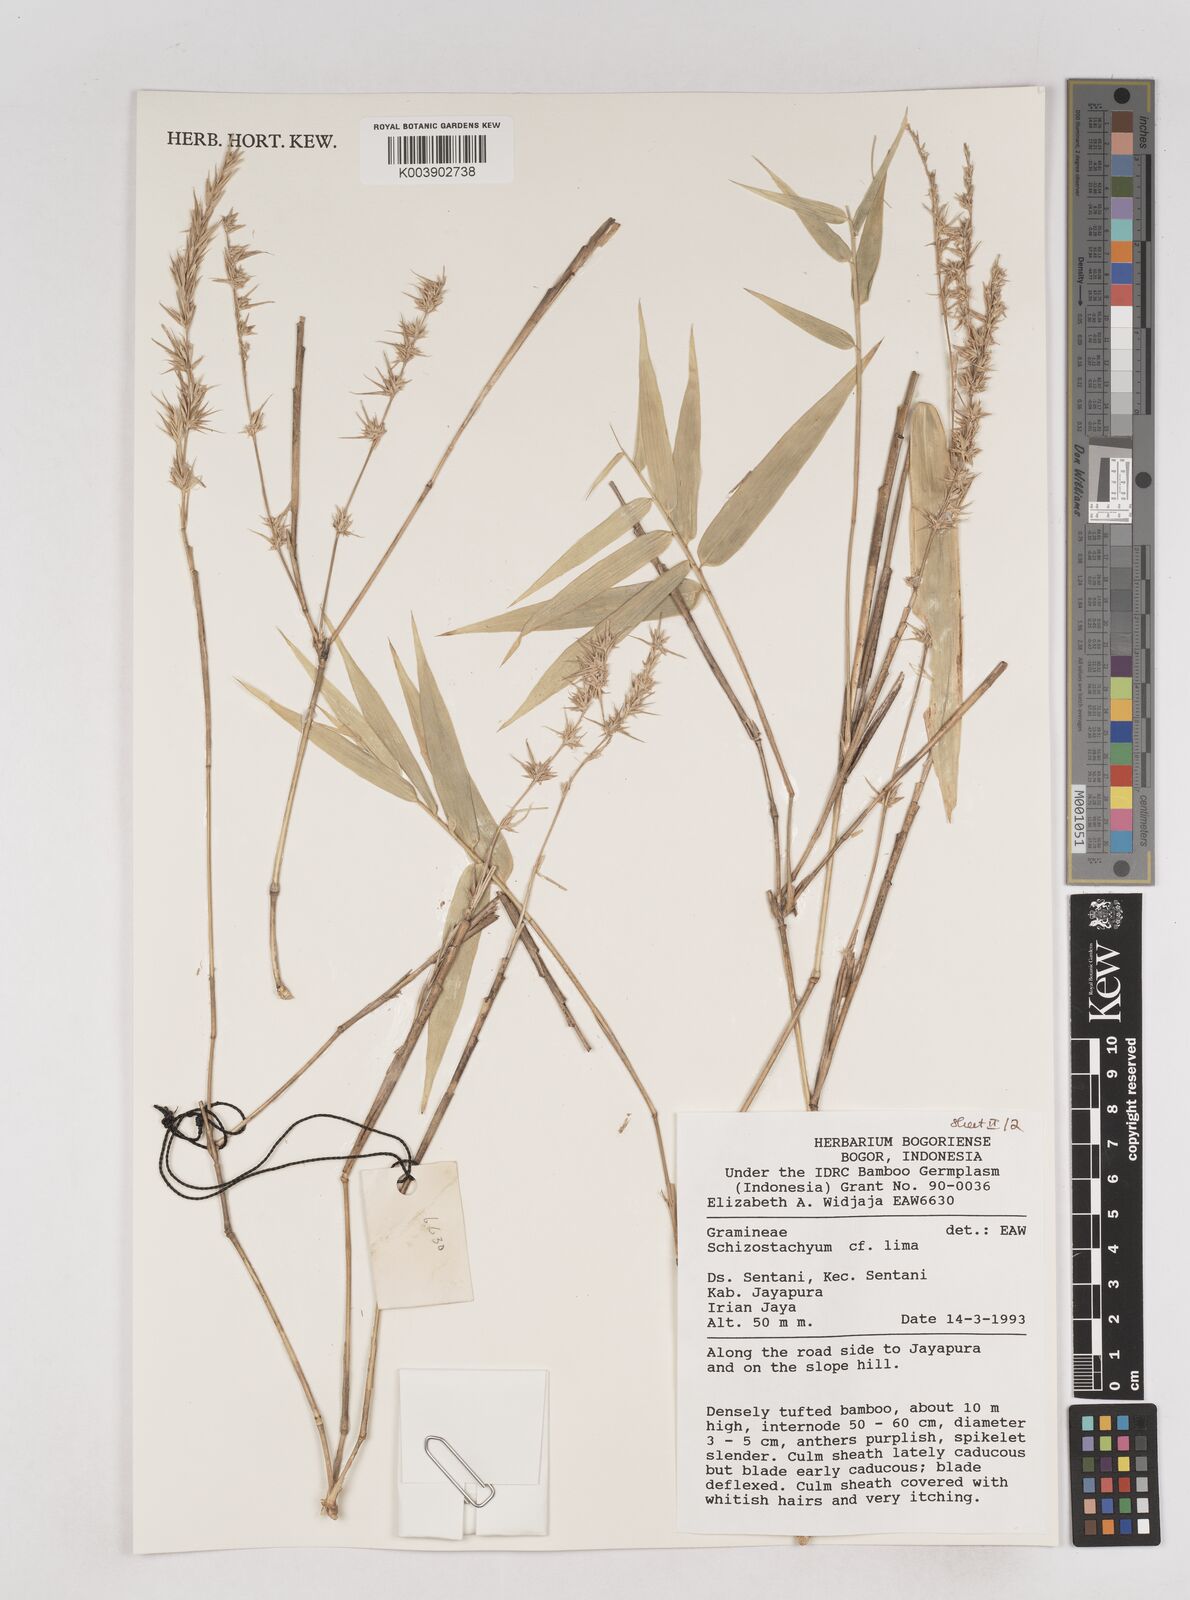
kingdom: Plantae
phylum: Tracheophyta
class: Liliopsida
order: Poales
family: Poaceae
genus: Schizostachyum
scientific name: Schizostachyum
